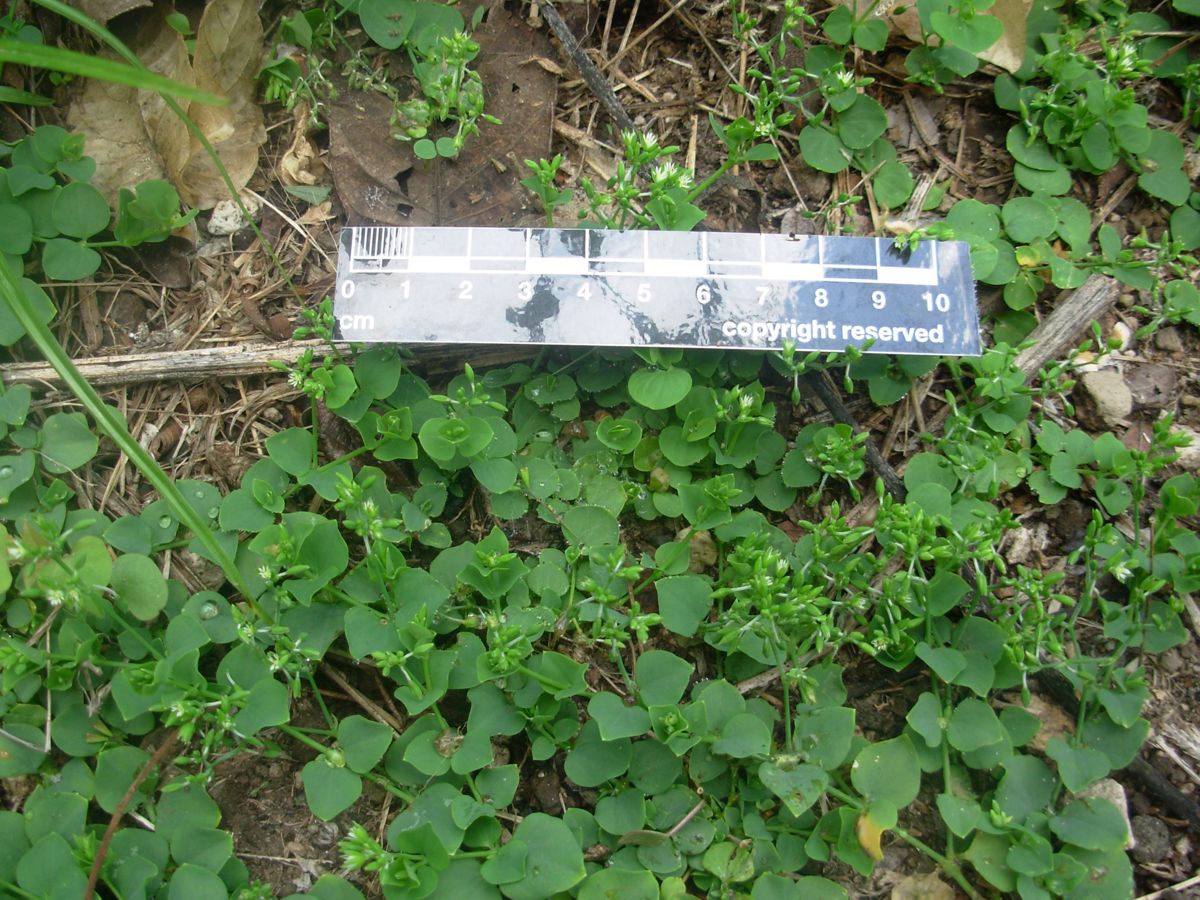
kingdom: Plantae
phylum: Tracheophyta
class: Magnoliopsida
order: Caryophyllales
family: Caryophyllaceae
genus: Drymaria
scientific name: Drymaria cordata
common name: Whitesnow
